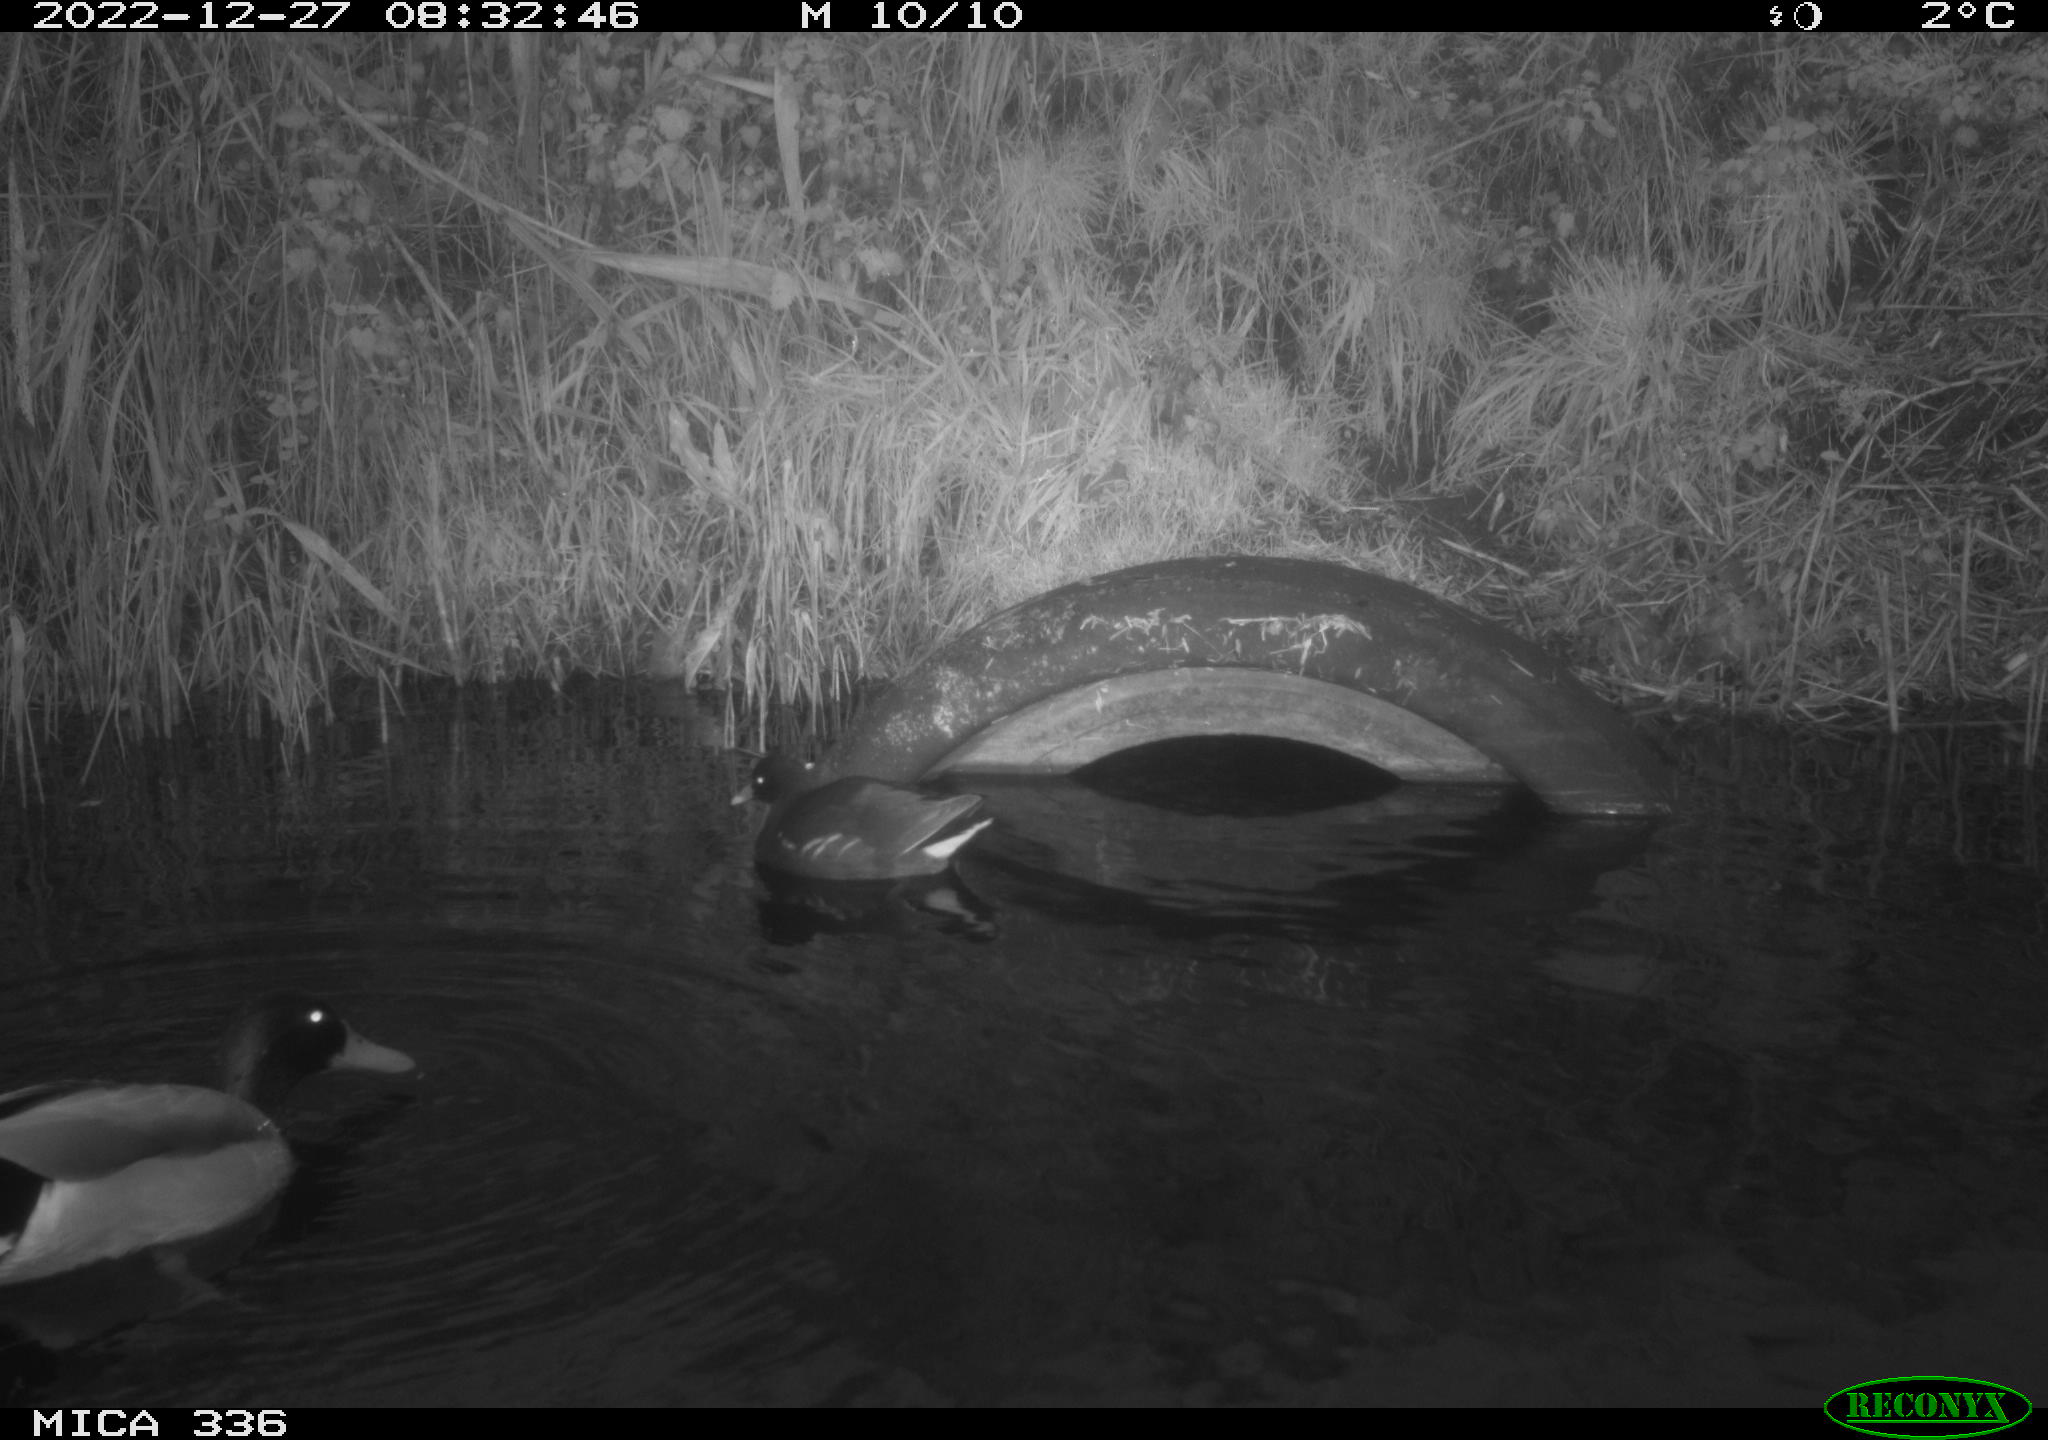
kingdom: Animalia
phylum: Chordata
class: Aves
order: Anseriformes
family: Anatidae
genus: Anas
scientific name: Anas
